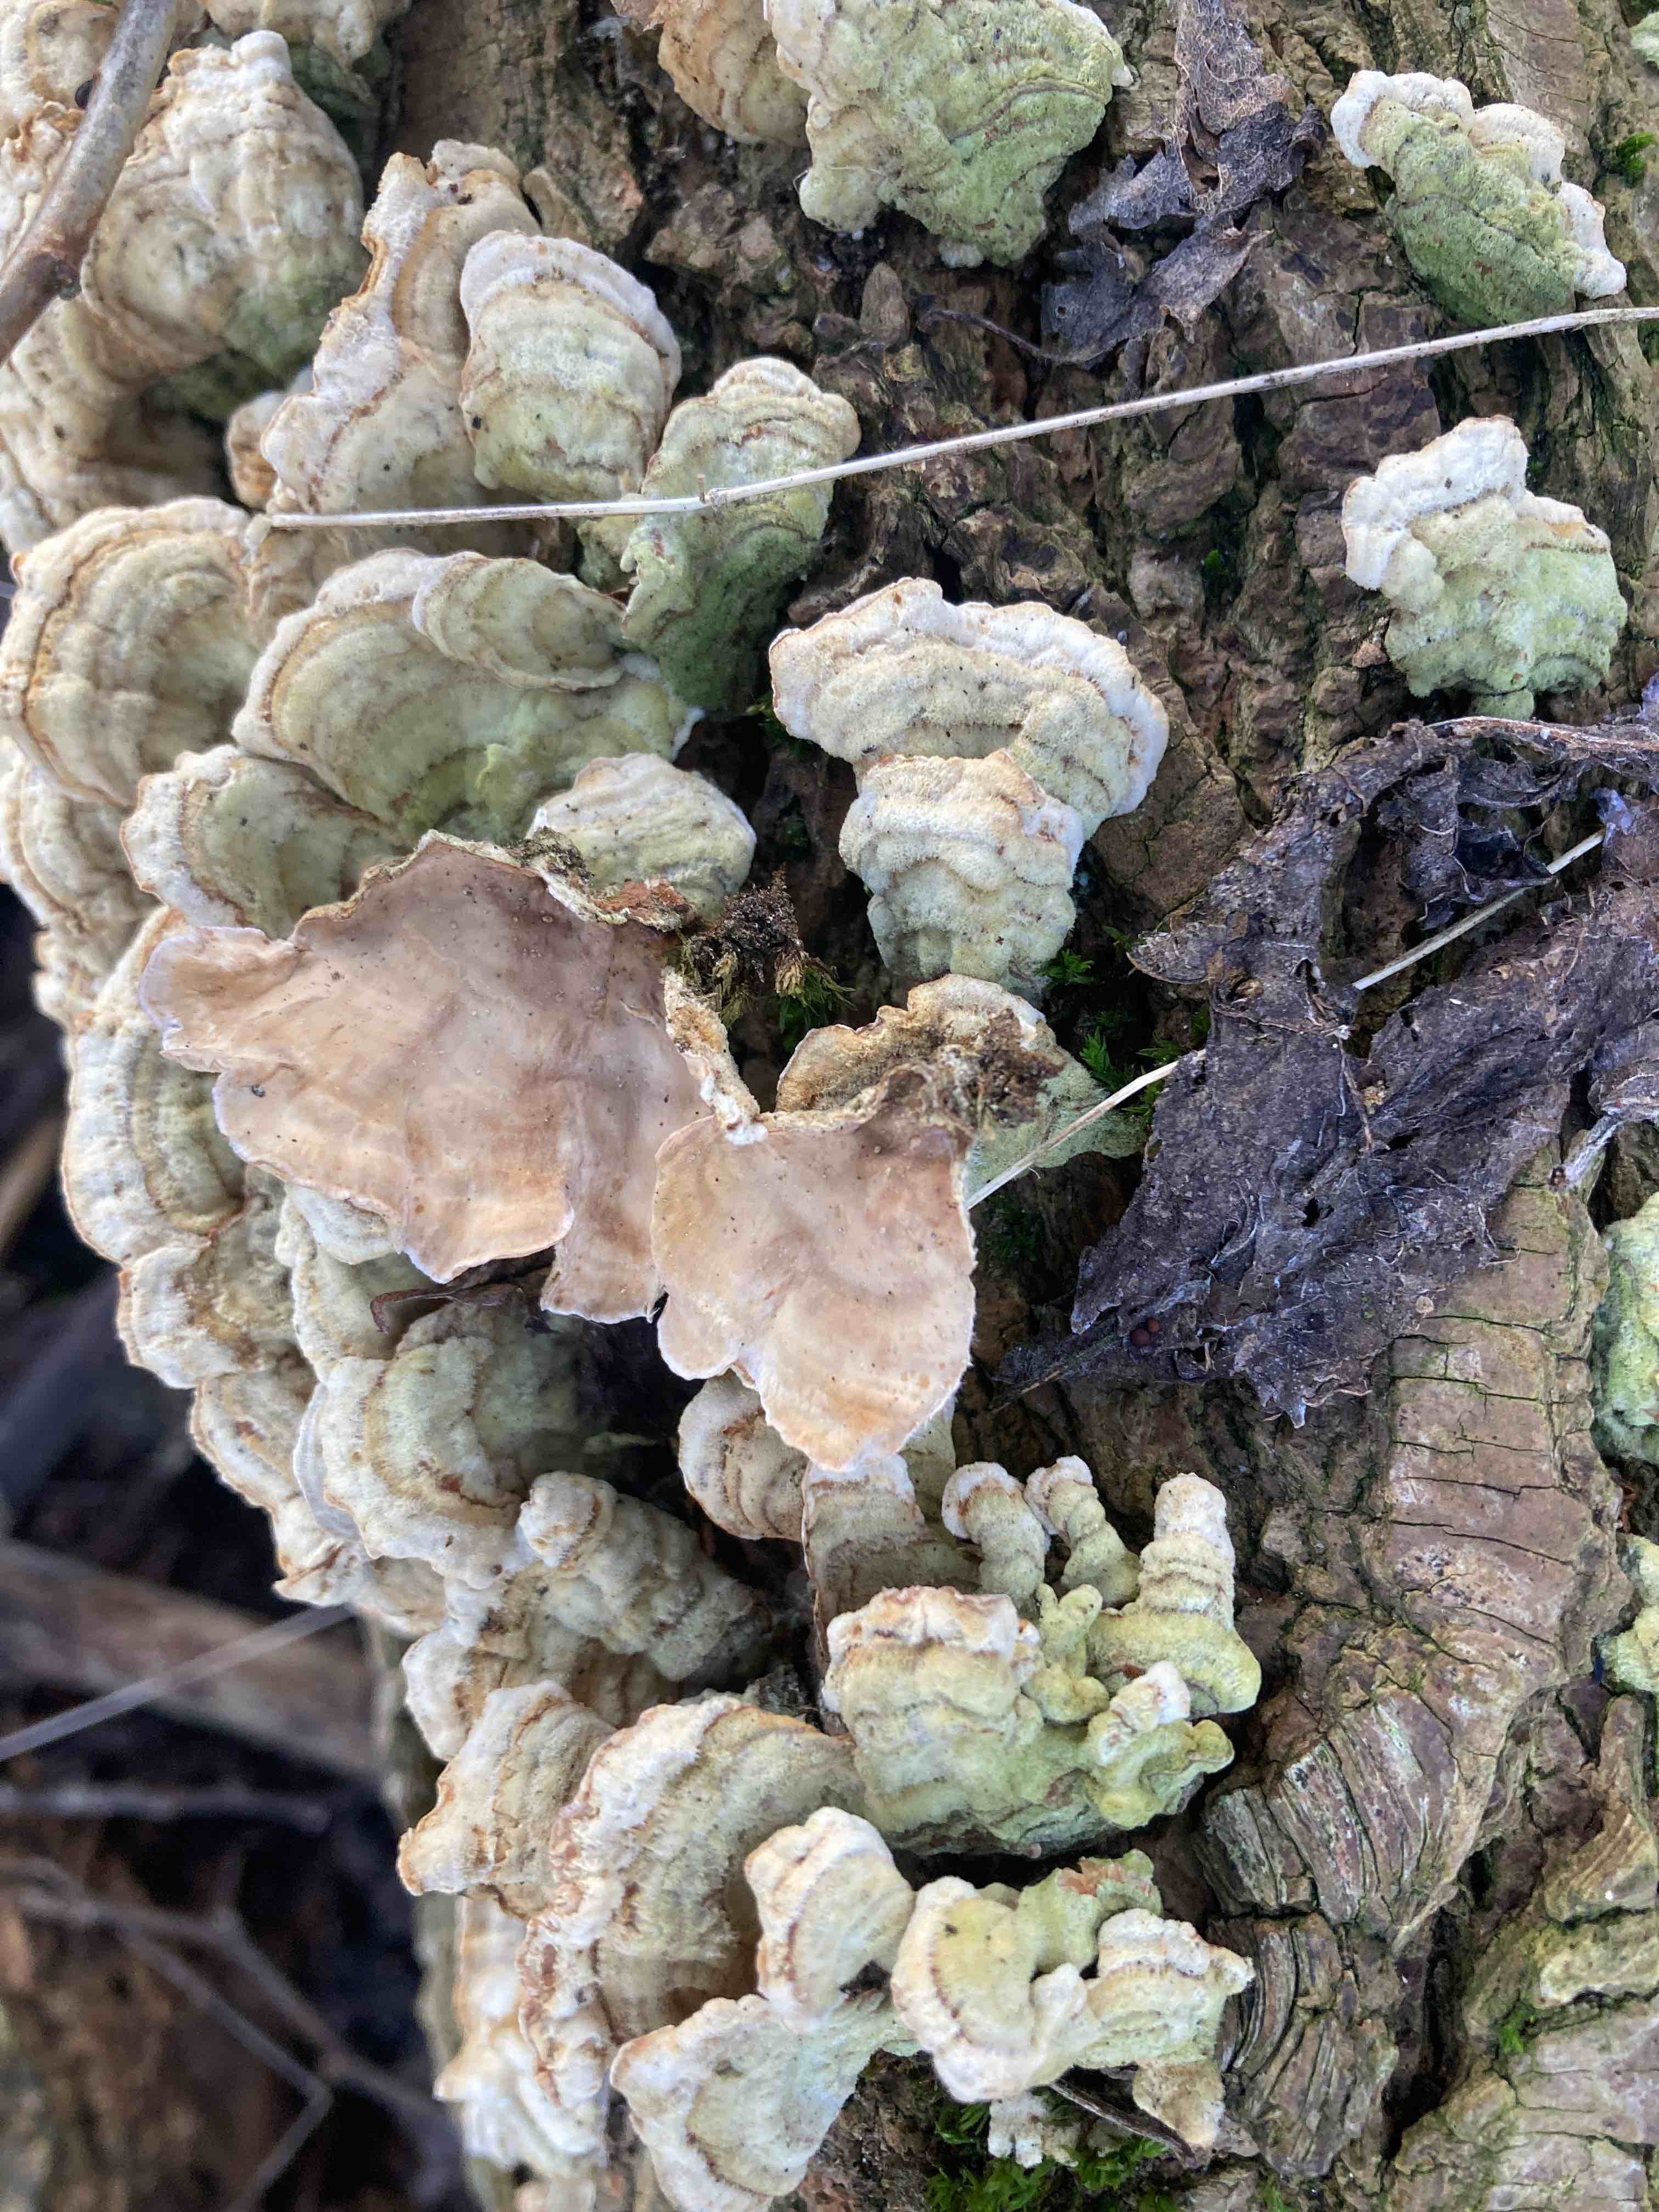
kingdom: Fungi
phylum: Basidiomycota
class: Agaricomycetes
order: Russulales
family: Stereaceae
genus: Stereum
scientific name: Stereum subtomentosum
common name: smuk lædersvamp
